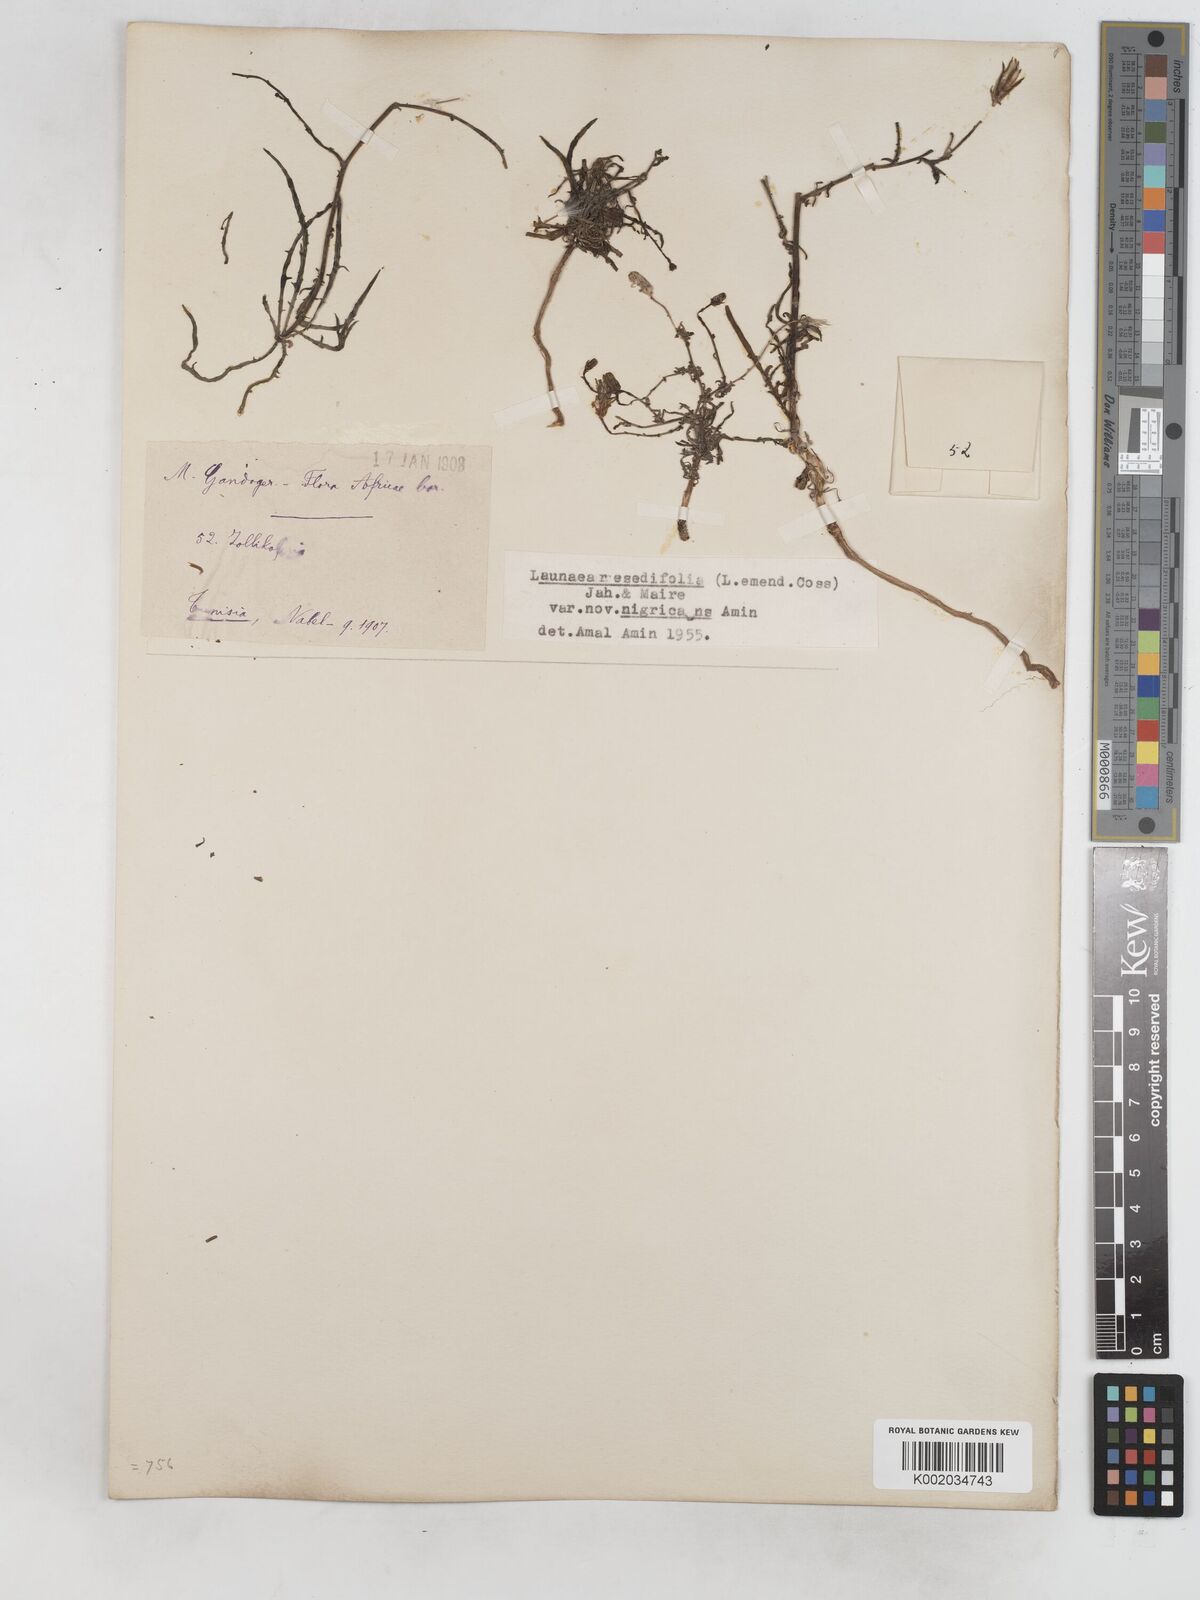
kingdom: Plantae
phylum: Tracheophyta
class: Magnoliopsida
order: Asterales
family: Asteraceae
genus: Launaea
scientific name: Launaea
